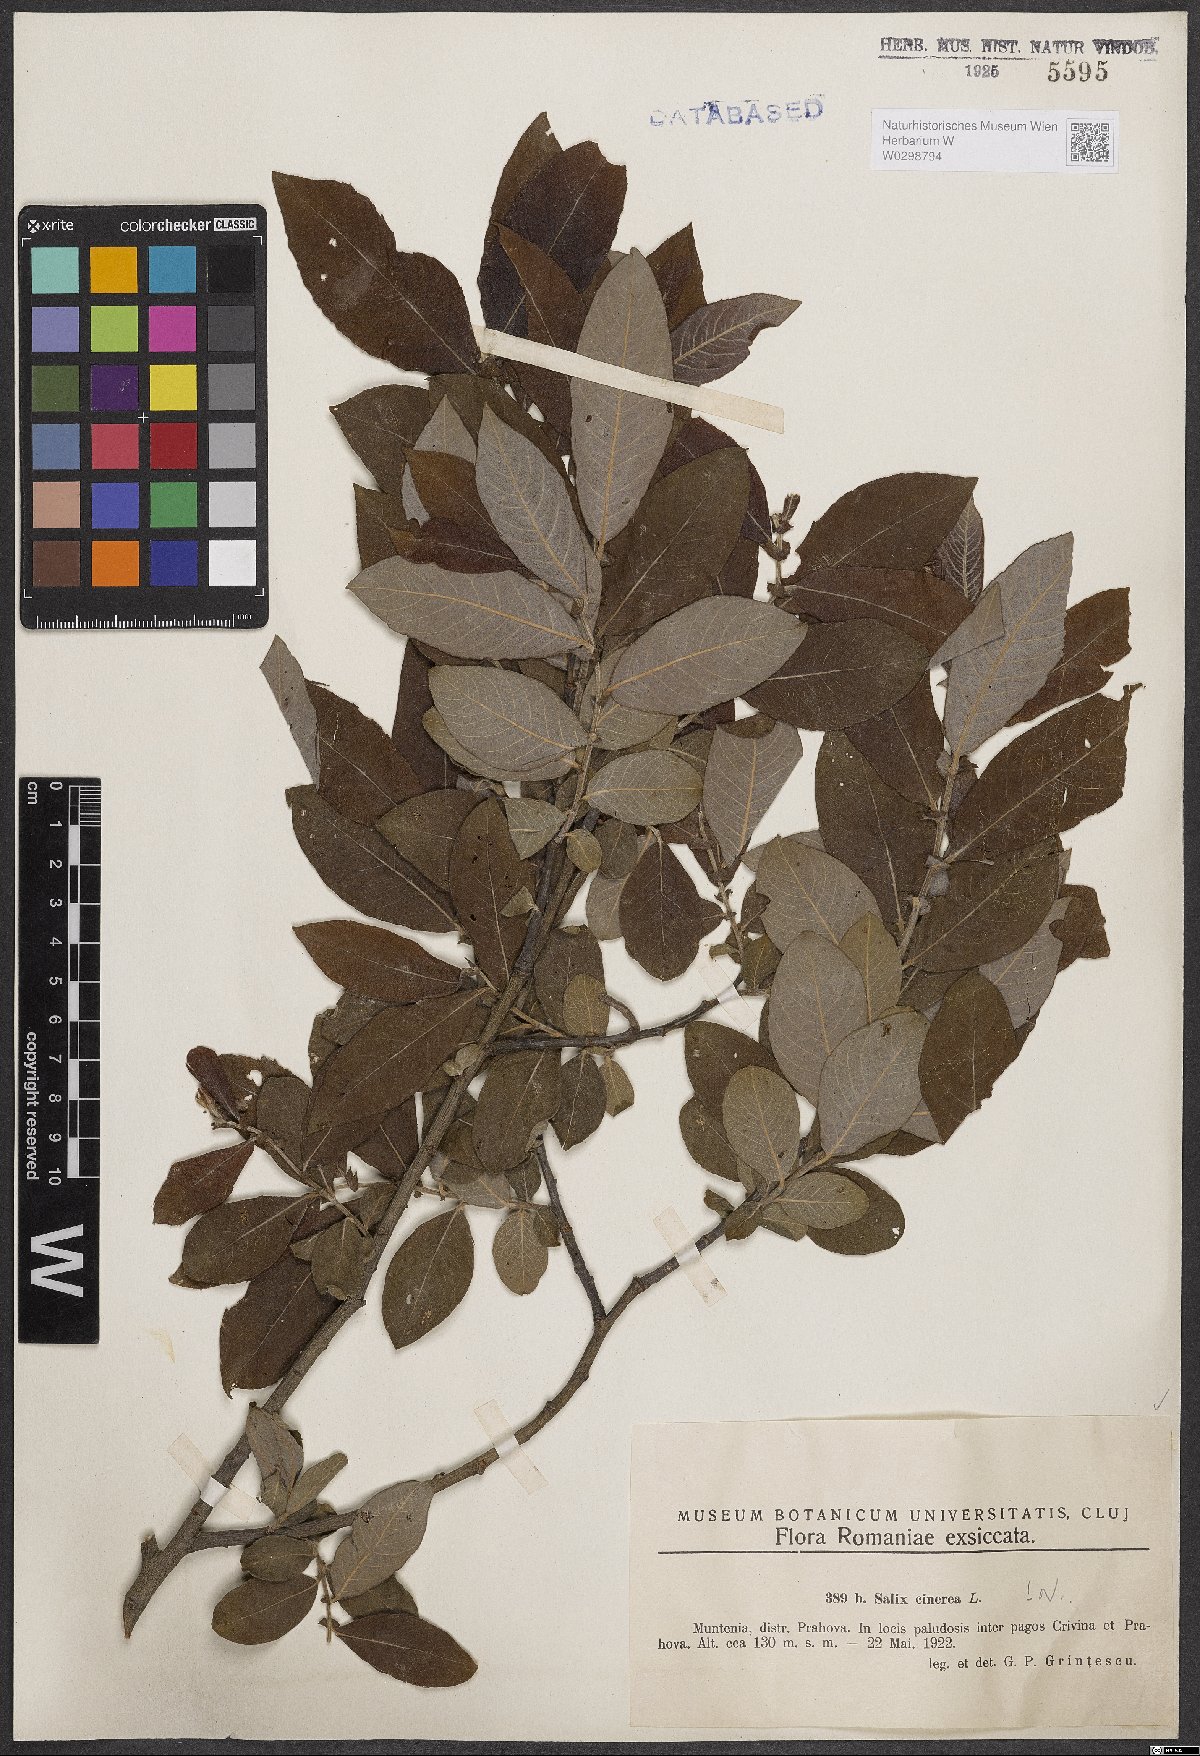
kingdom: Plantae
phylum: Tracheophyta
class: Magnoliopsida
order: Malpighiales
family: Salicaceae
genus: Salix
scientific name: Salix cinerea
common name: Common sallow
